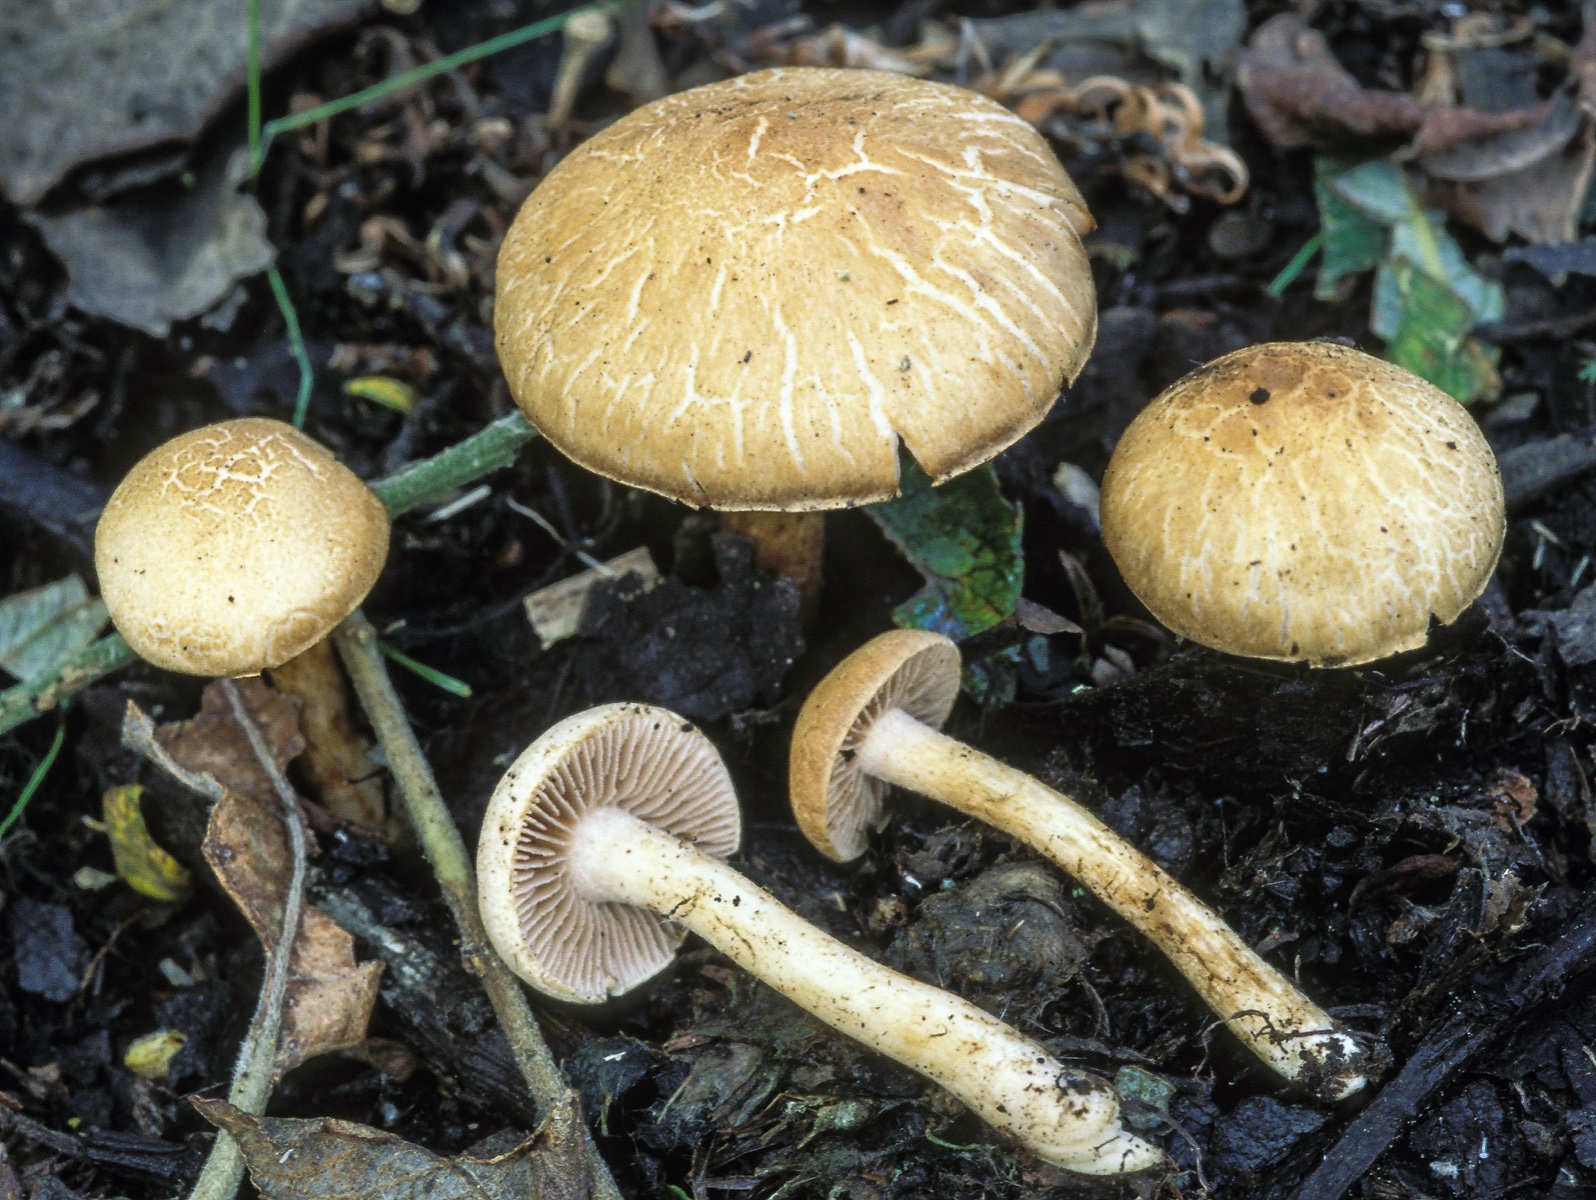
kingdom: Fungi
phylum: Basidiomycota
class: Agaricomycetes
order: Agaricales
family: Hymenogastraceae
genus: Hebeloma
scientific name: Hebeloma fusisporum
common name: kandis-tåreblad
